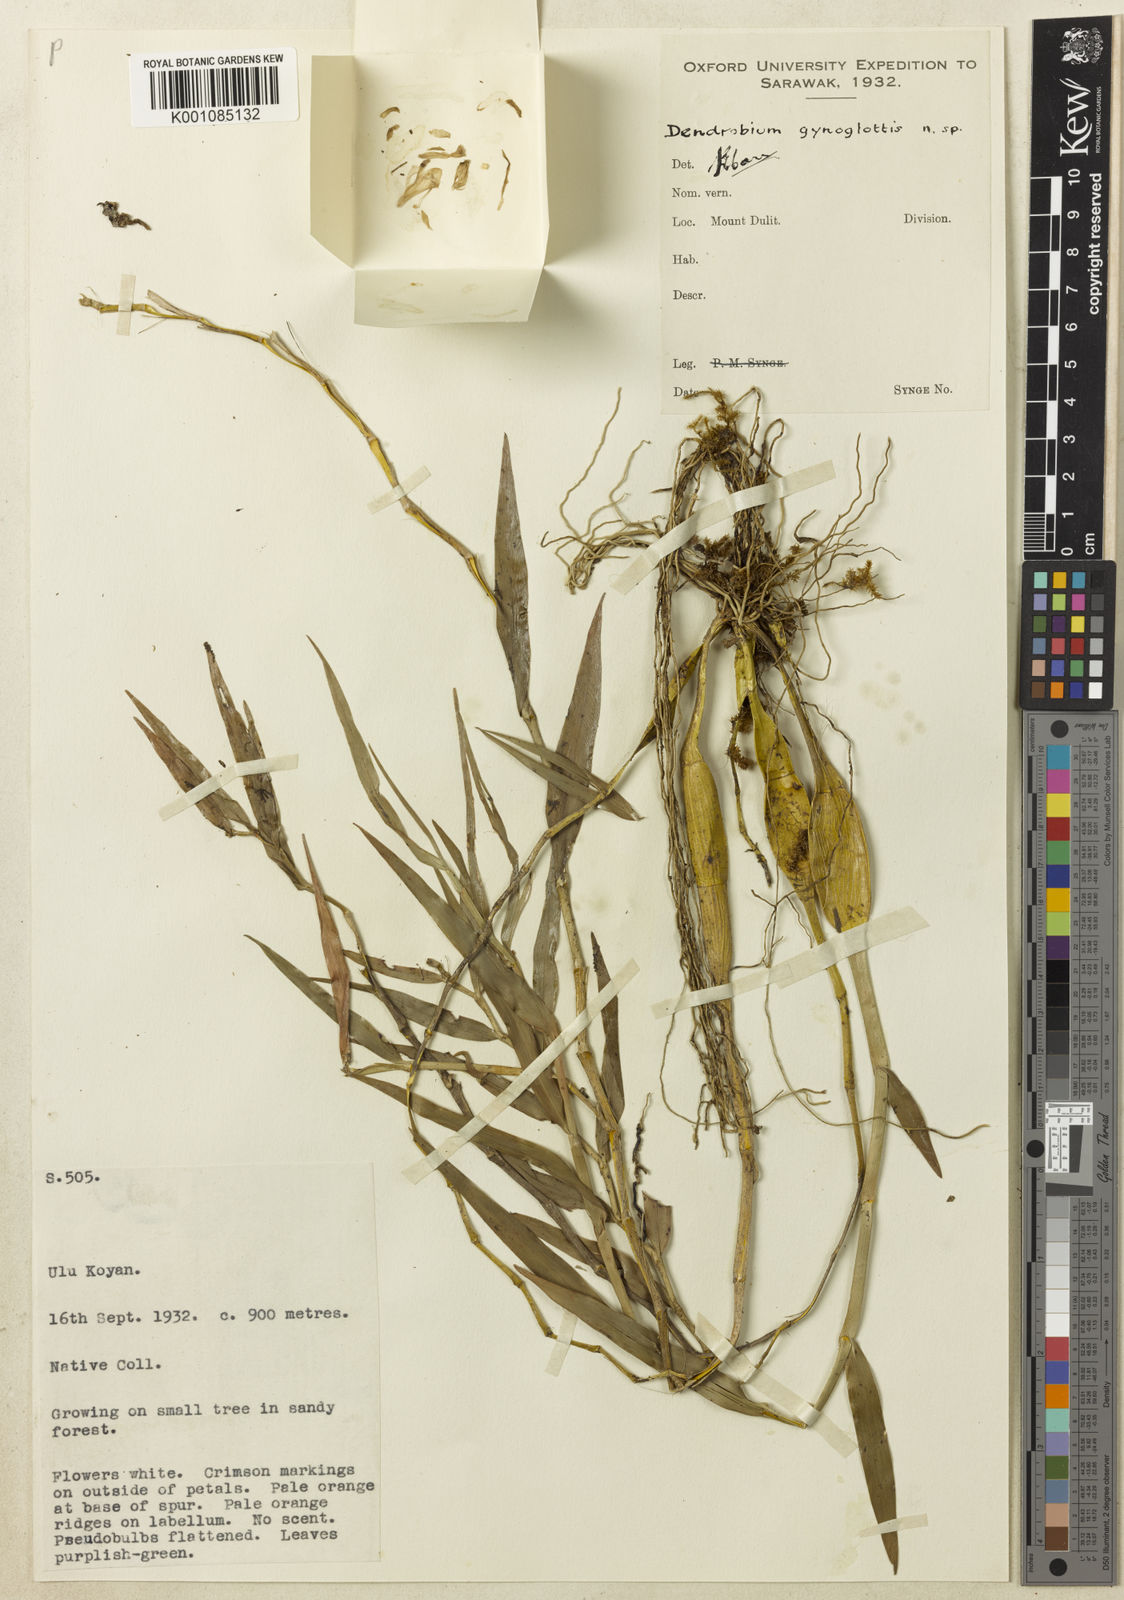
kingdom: Plantae
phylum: Tracheophyta
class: Liliopsida
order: Asparagales
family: Orchidaceae
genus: Dendrobium
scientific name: Dendrobium gynoglottis
